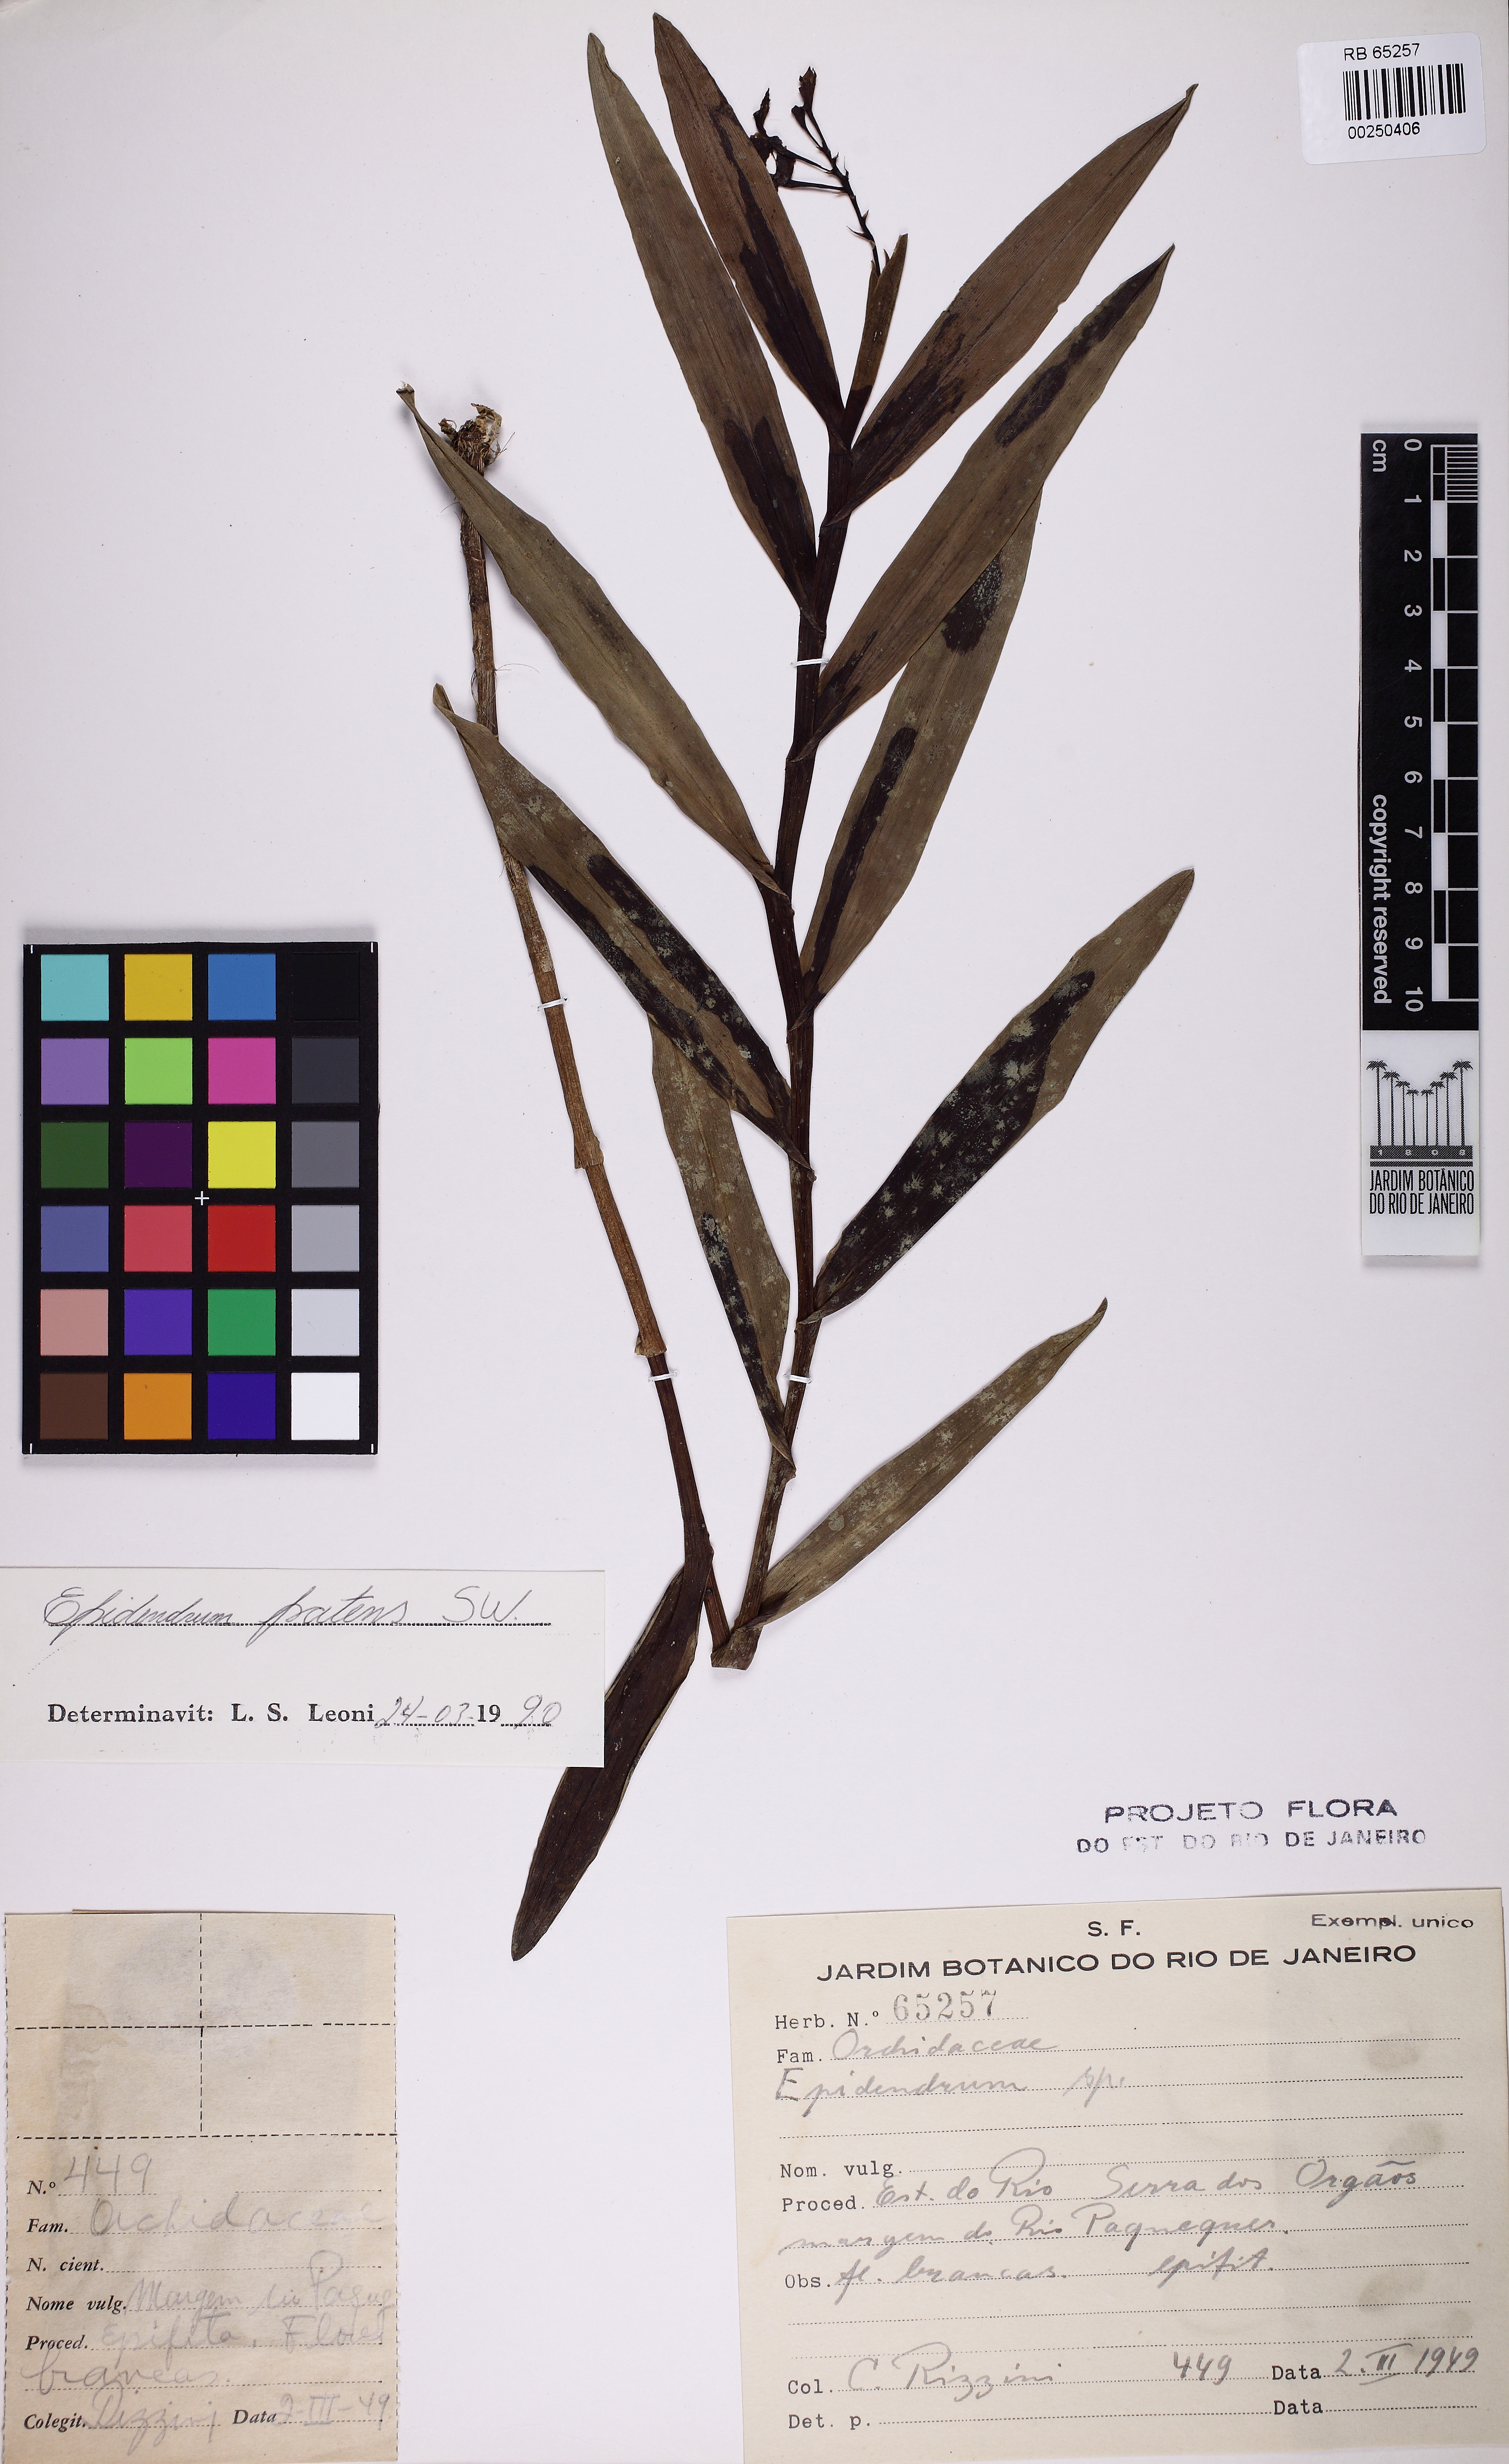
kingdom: Plantae
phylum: Tracheophyta
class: Liliopsida
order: Asparagales
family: Orchidaceae
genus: Epidendrum
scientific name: Epidendrum patens
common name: West indian star orchid
